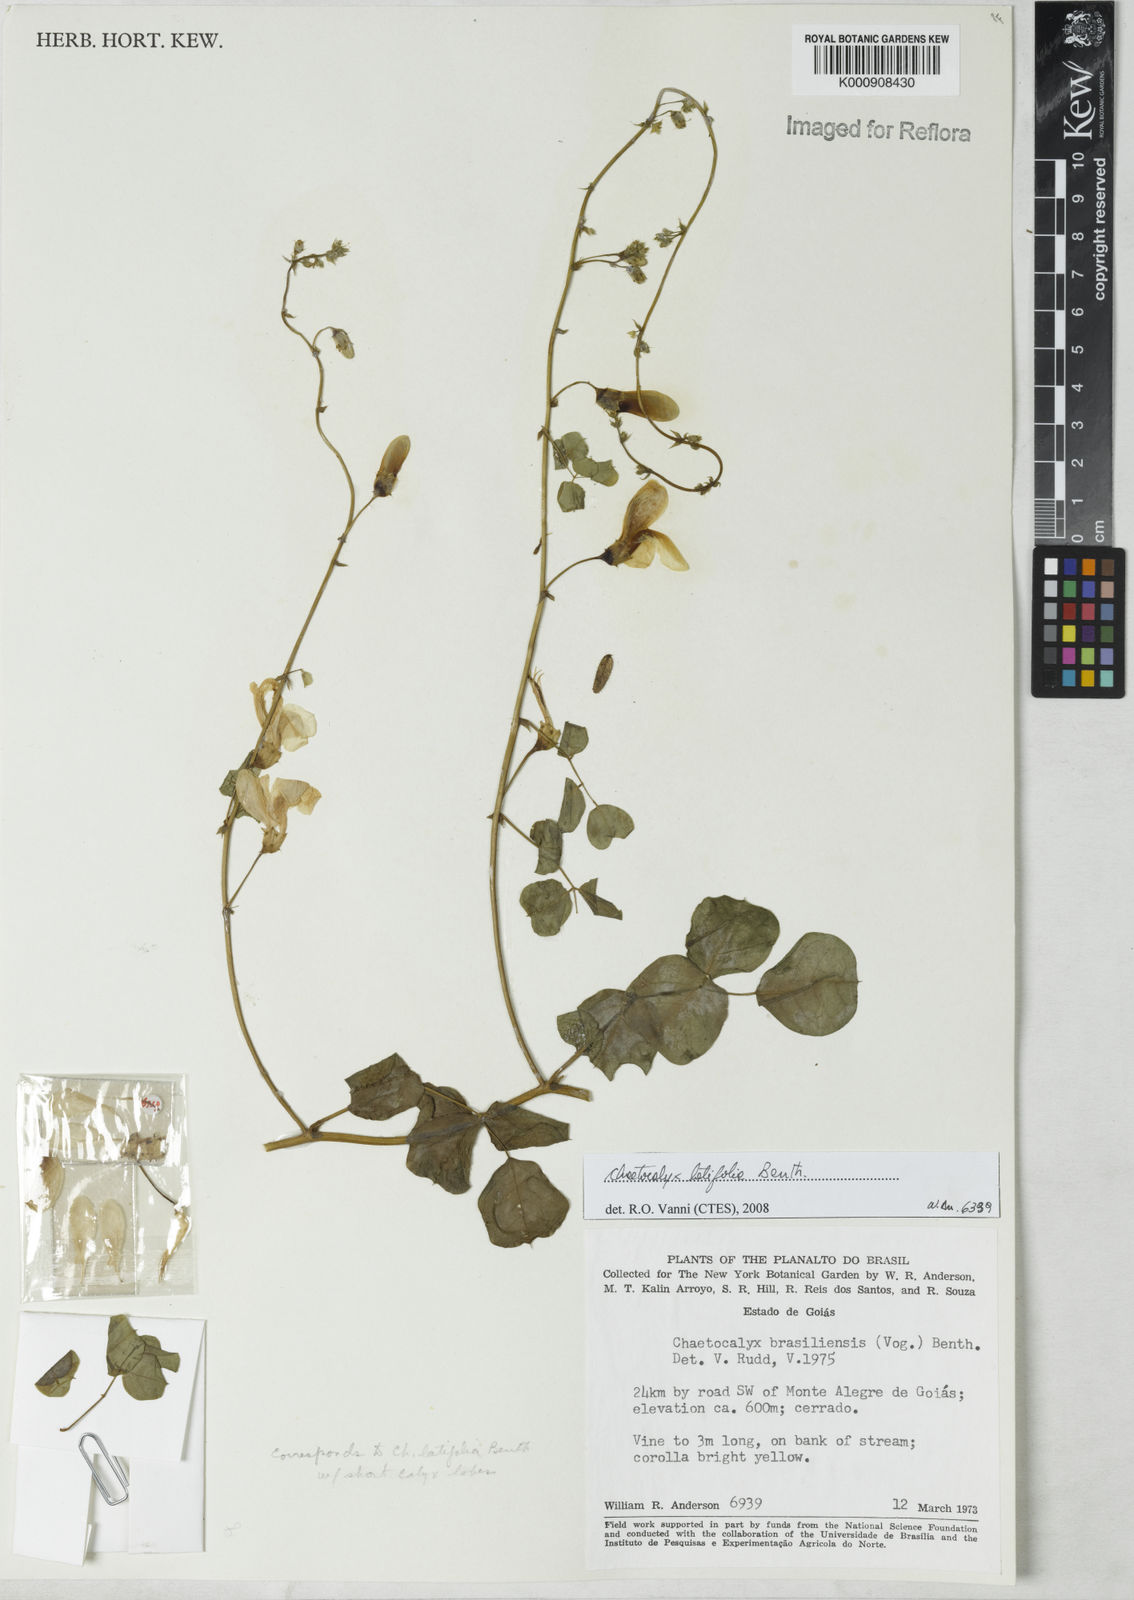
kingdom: Plantae
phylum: Tracheophyta
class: Magnoliopsida
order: Fabales
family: Fabaceae
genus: Nissolia
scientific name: Nissolia brasiliensis
